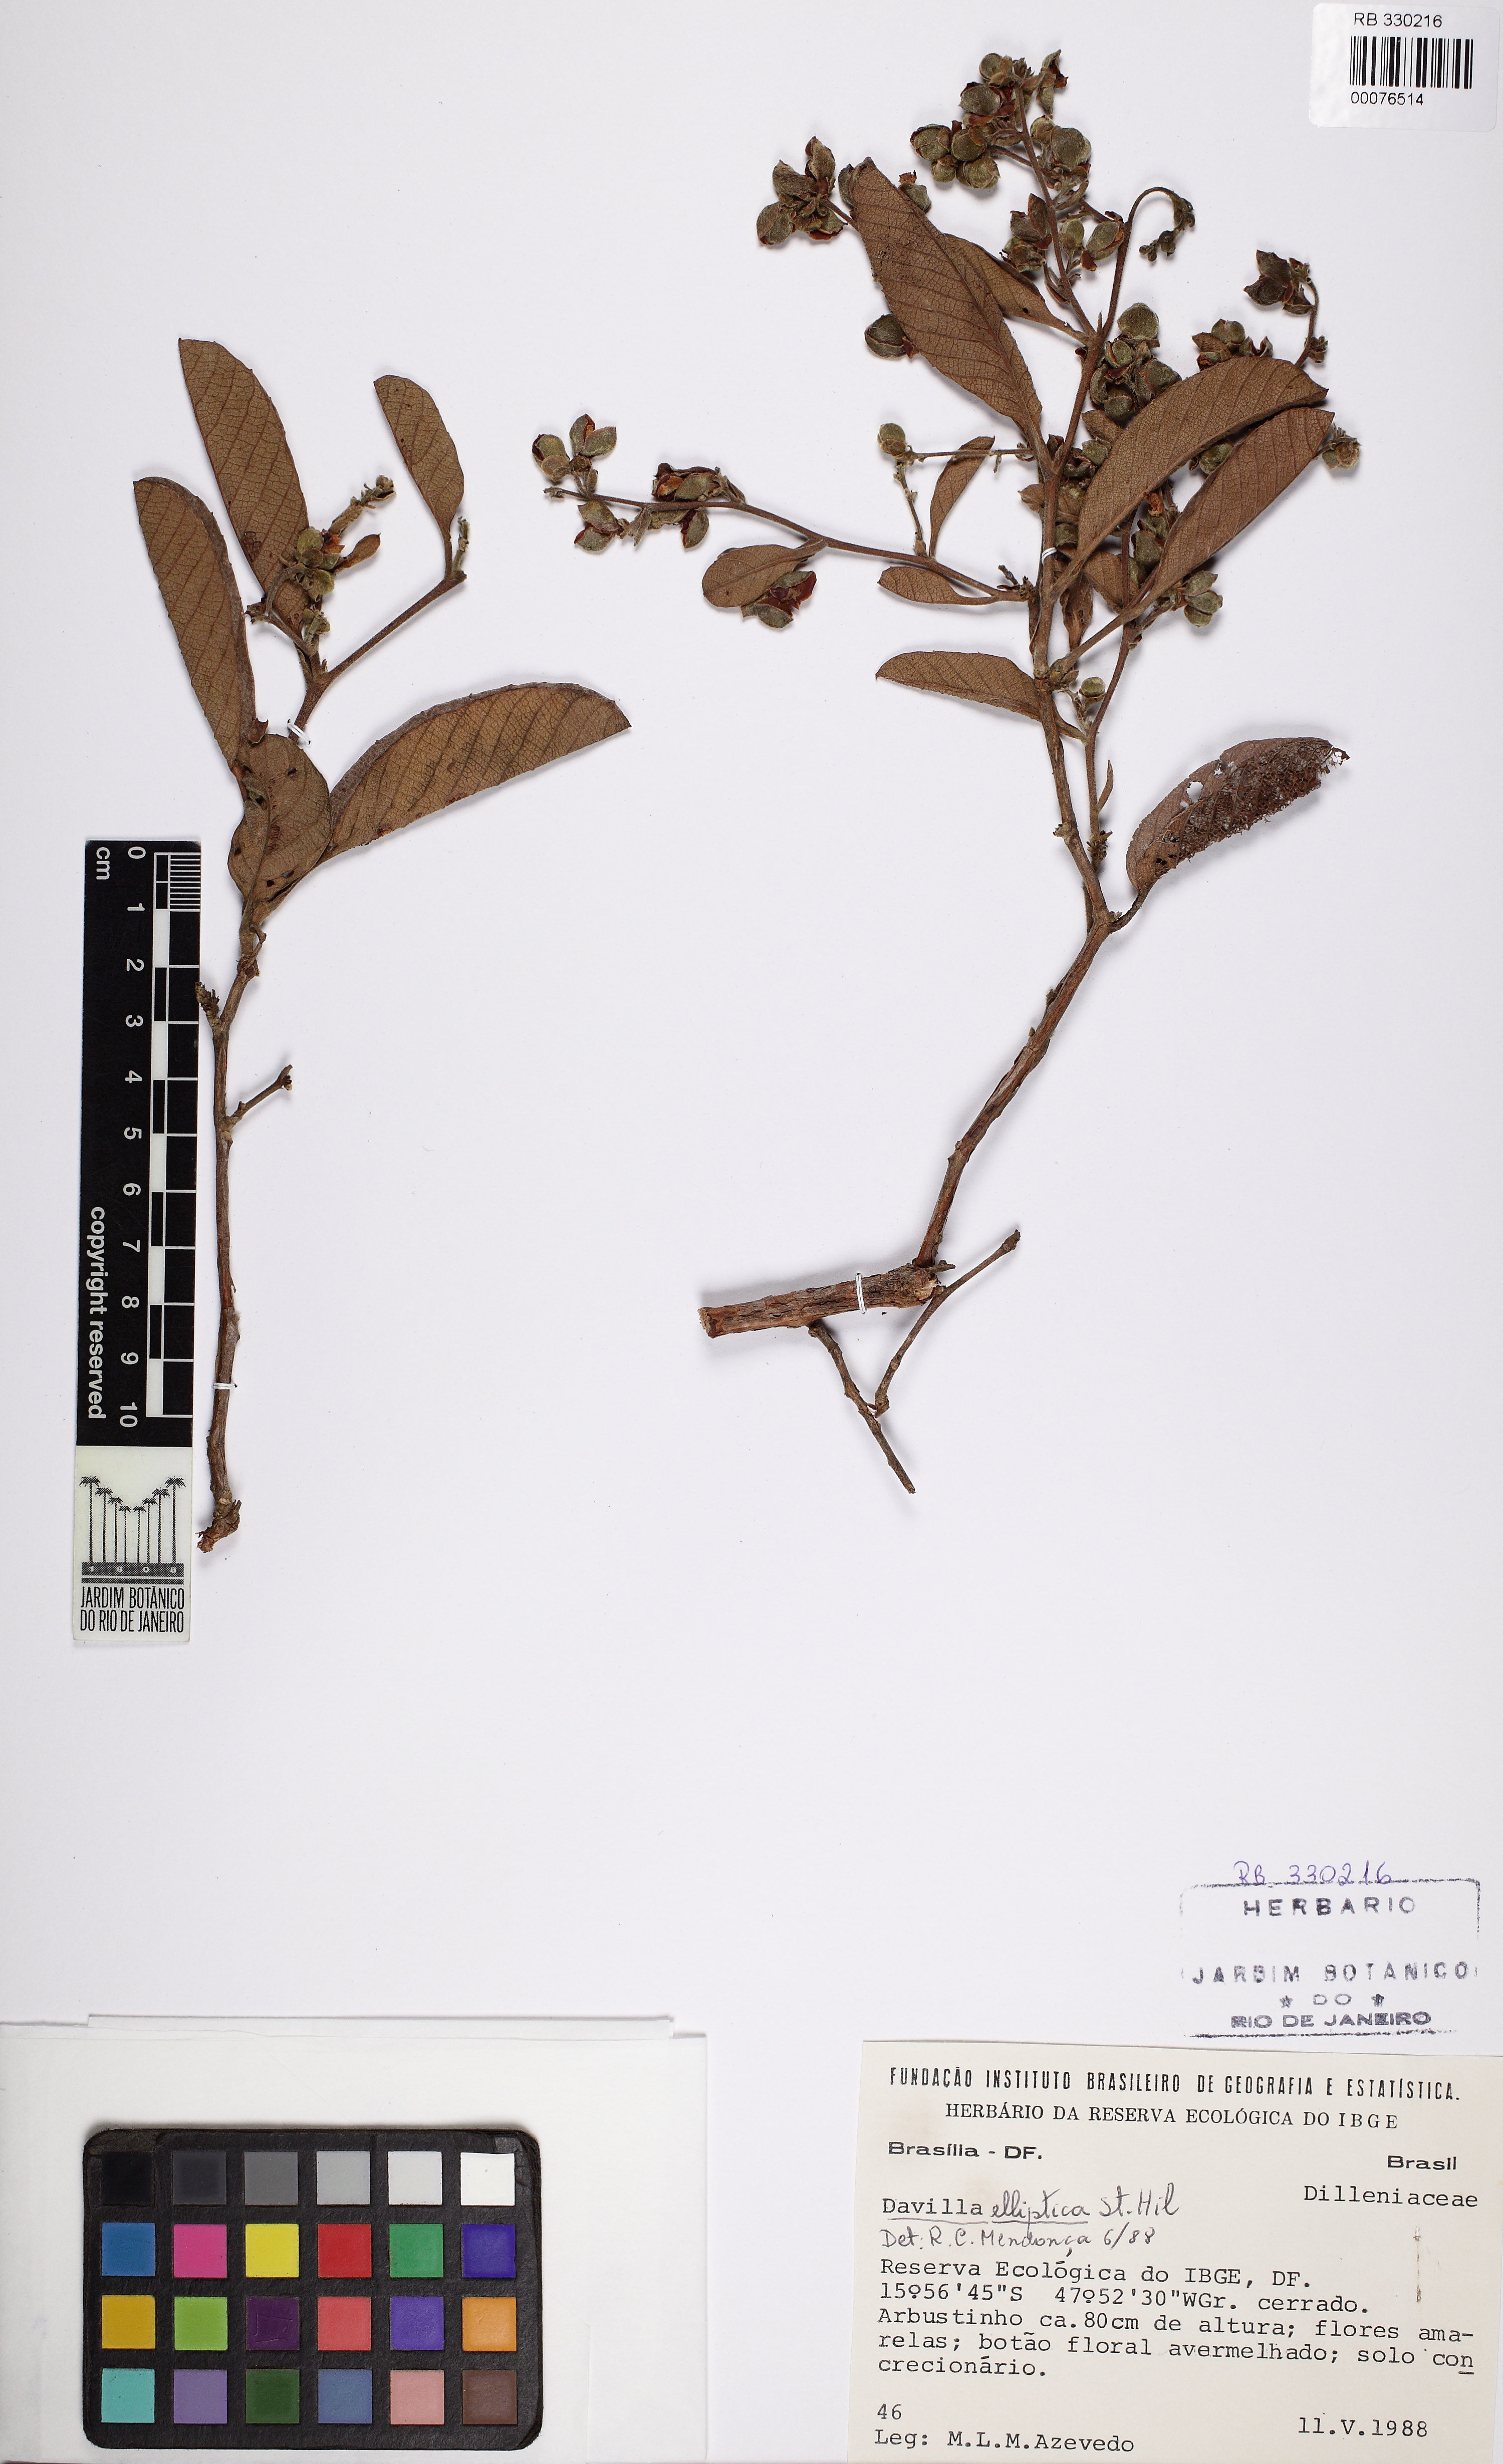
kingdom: Plantae
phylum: Tracheophyta
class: Magnoliopsida
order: Dilleniales
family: Dilleniaceae
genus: Davilla
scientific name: Davilla elliptica
